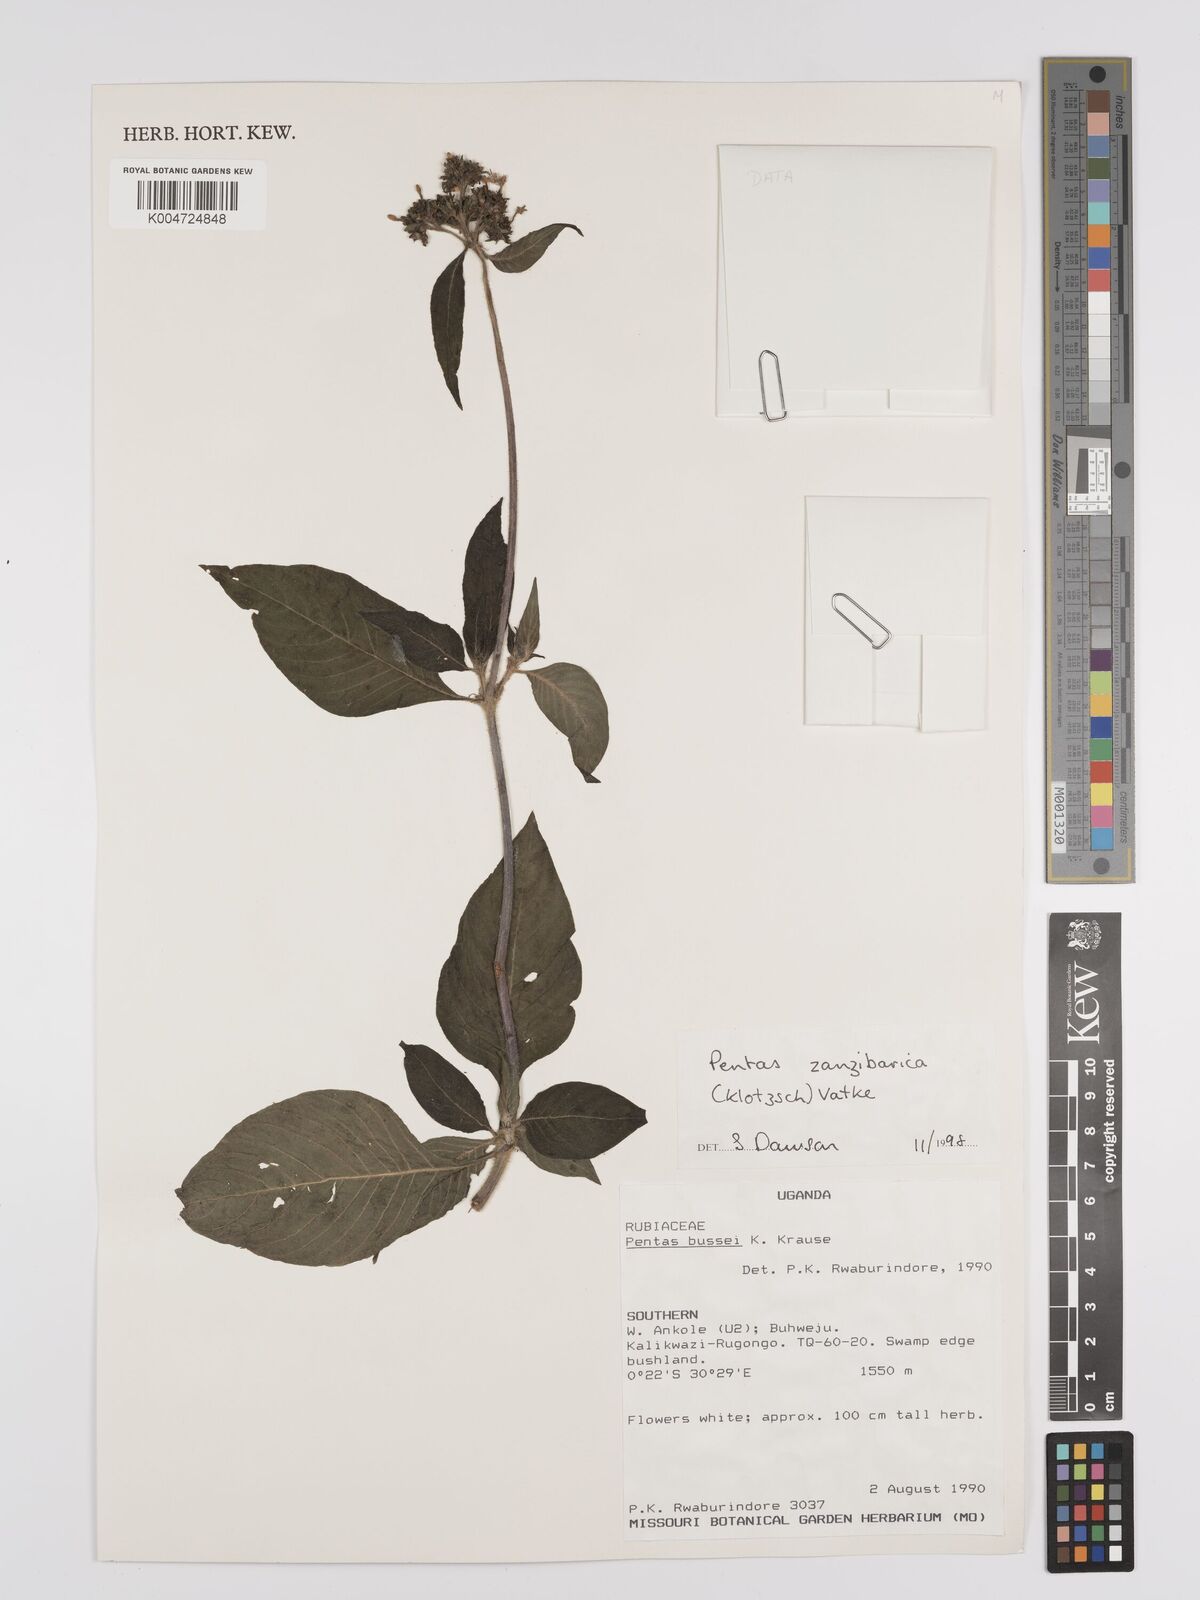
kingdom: Plantae
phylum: Tracheophyta
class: Magnoliopsida
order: Gentianales
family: Rubiaceae
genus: Pentas
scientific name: Pentas zanzibarica
